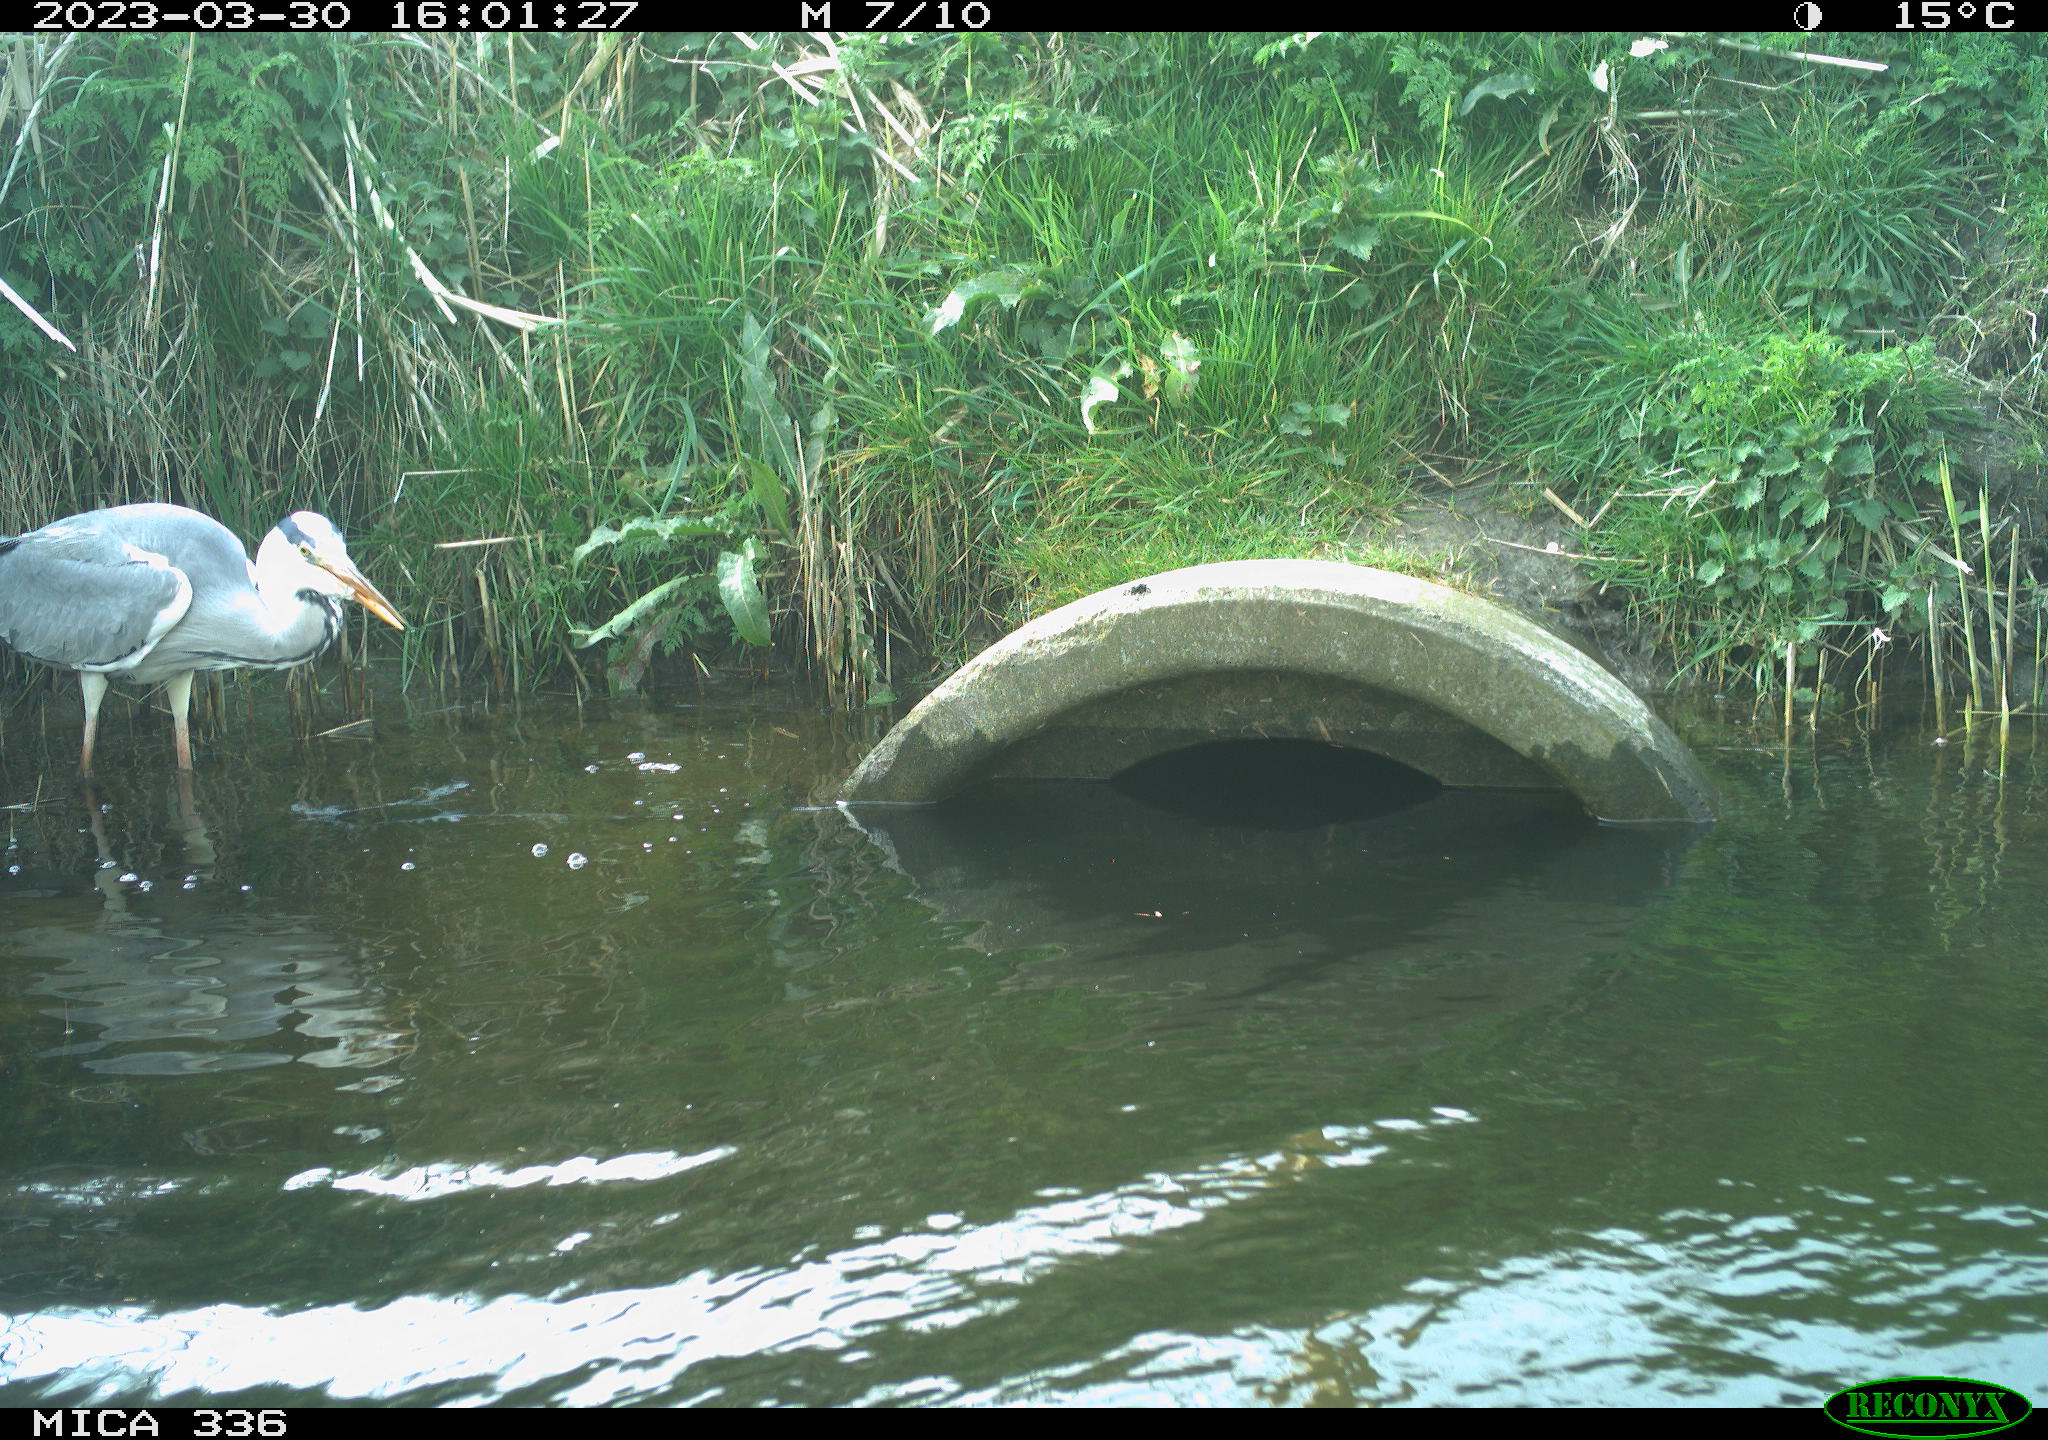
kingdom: Animalia
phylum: Chordata
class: Aves
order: Pelecaniformes
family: Ardeidae
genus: Ardea
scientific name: Ardea
